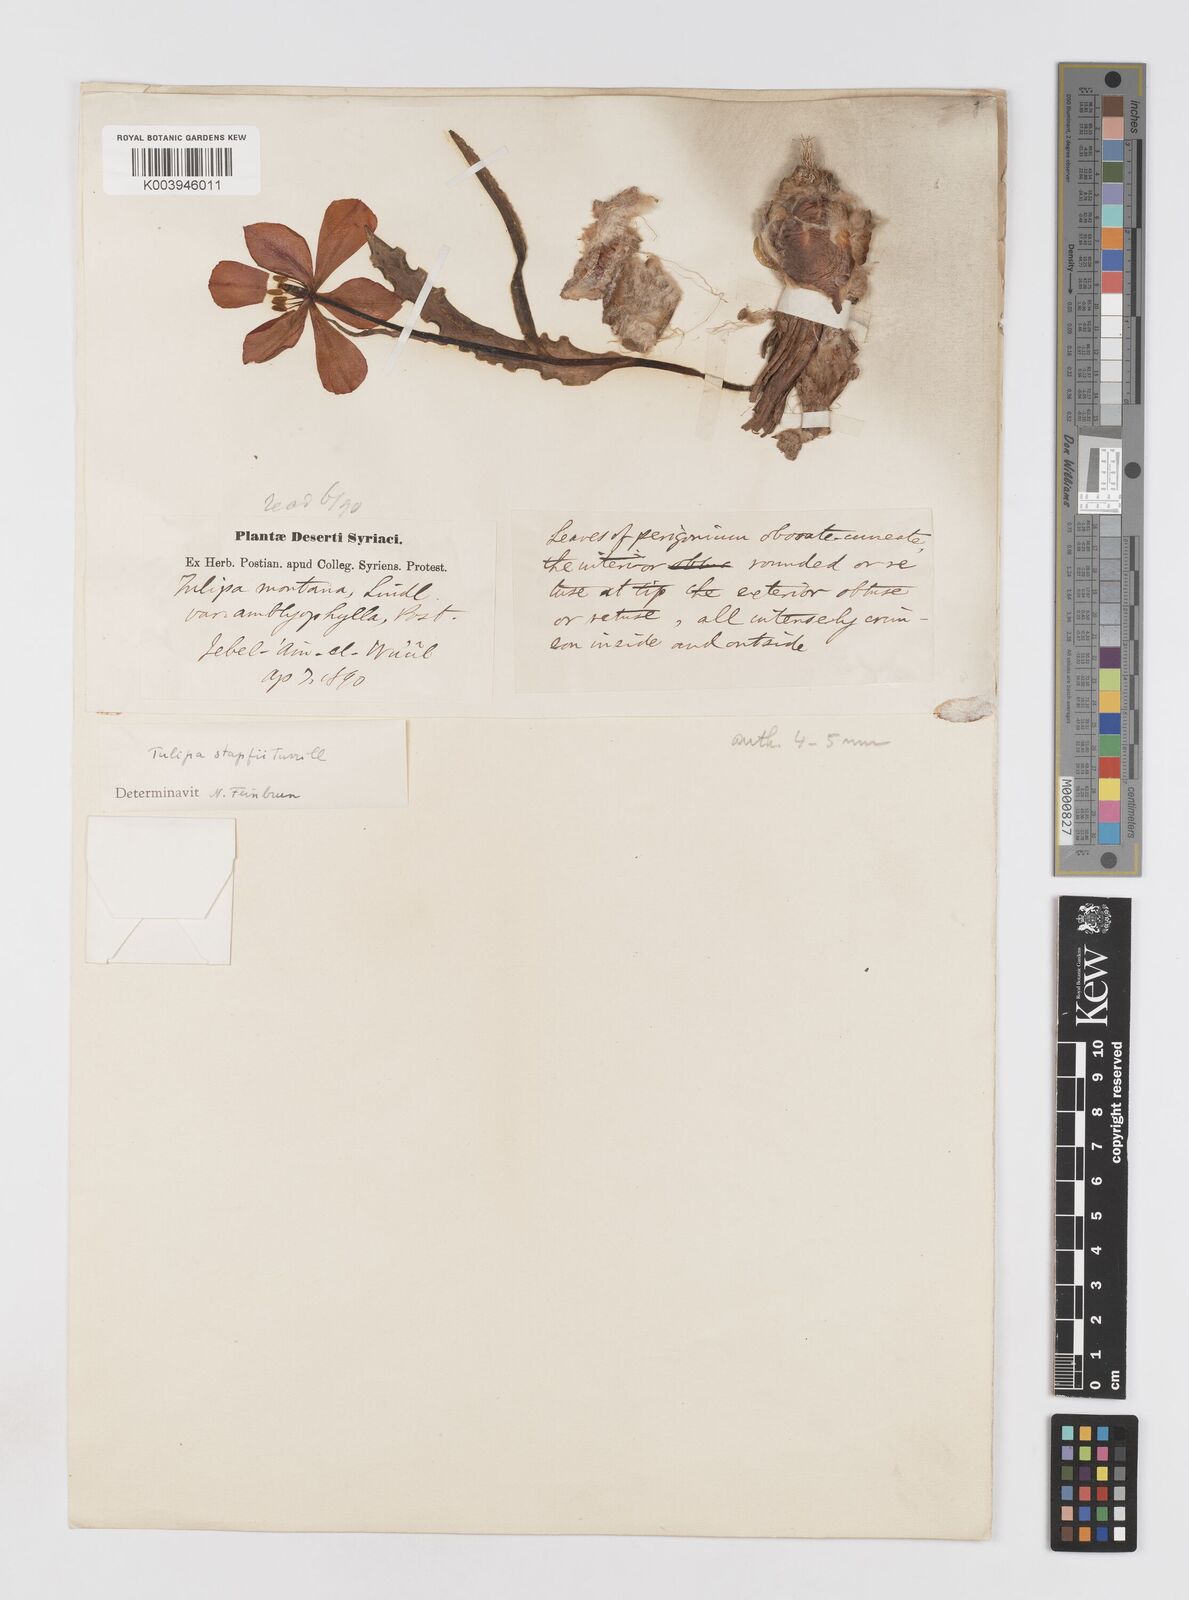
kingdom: Plantae
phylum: Tracheophyta
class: Liliopsida
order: Liliales
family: Liliaceae
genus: Tulipa
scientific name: Tulipa systola
